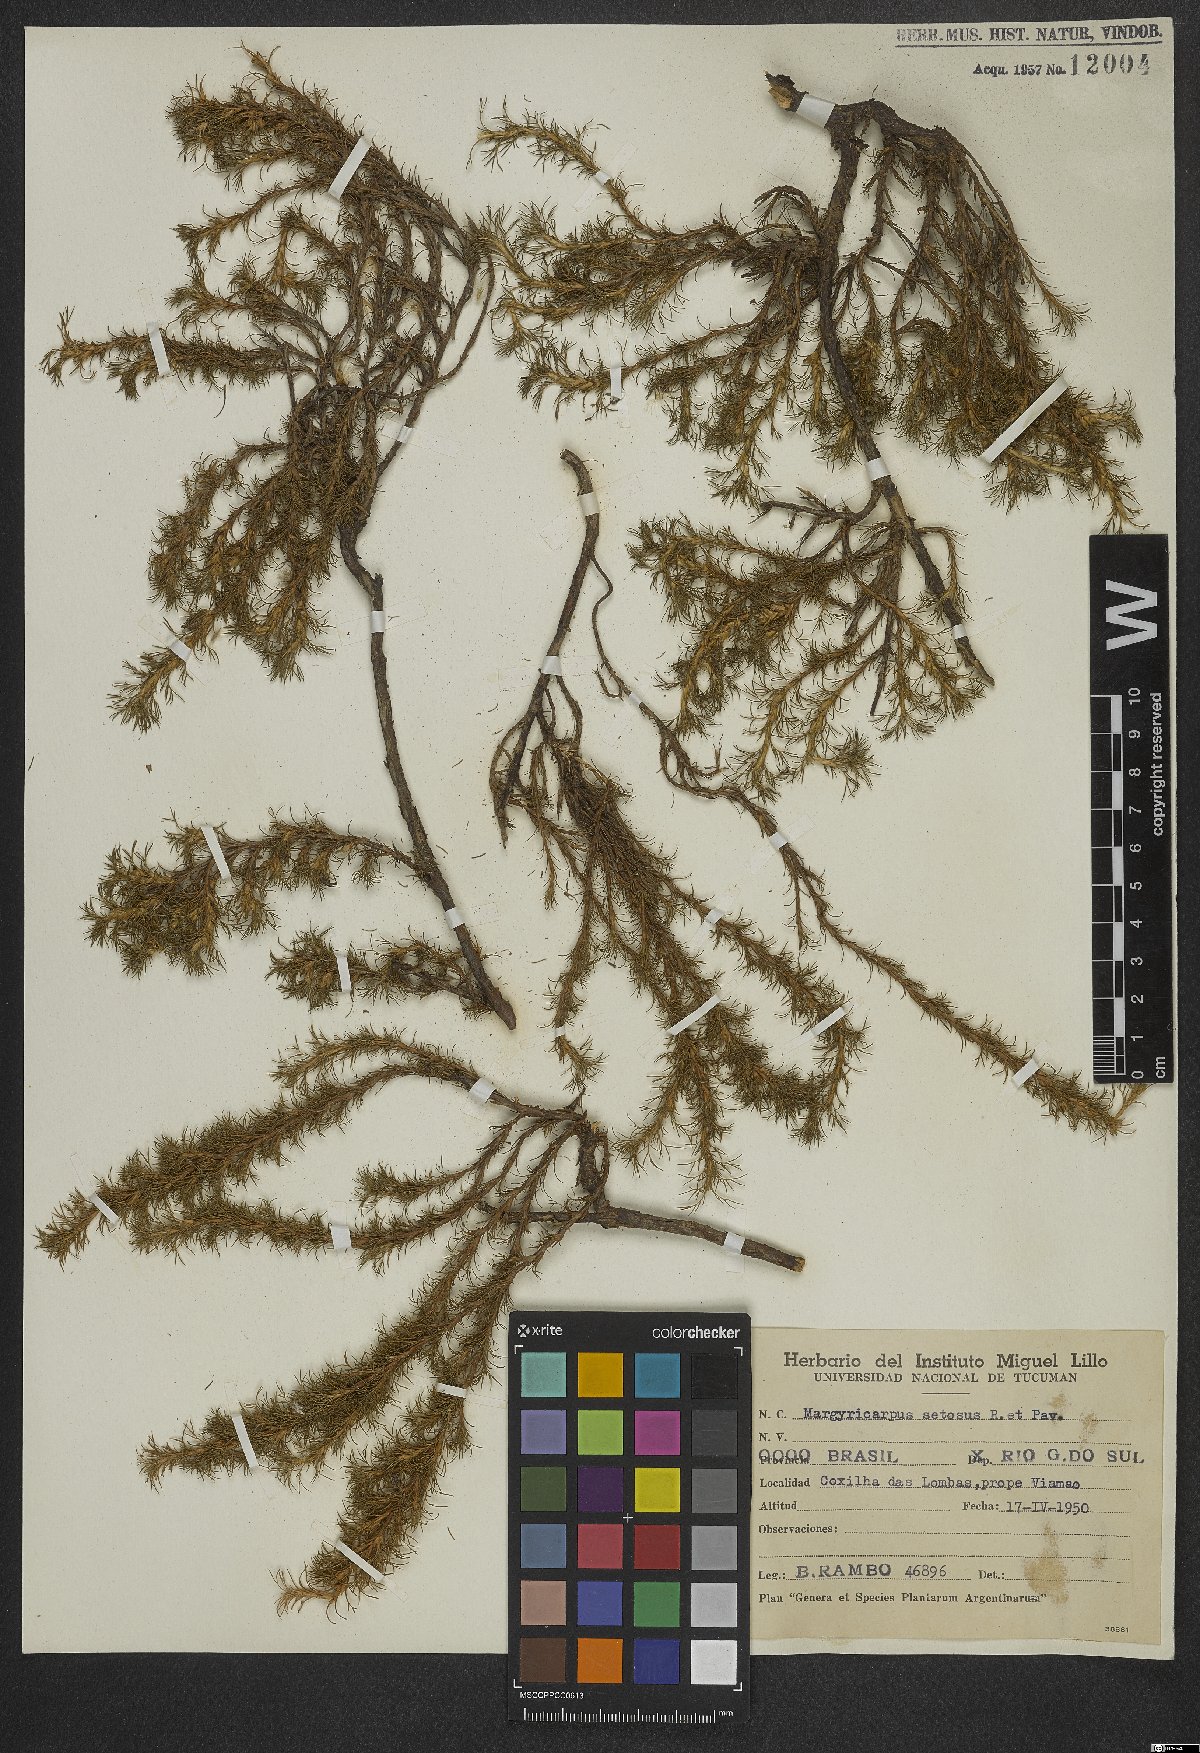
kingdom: Plantae
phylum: Tracheophyta
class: Magnoliopsida
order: Rosales
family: Rosaceae
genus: Margyricarpus
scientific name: Margyricarpus pinnatus
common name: Pearlfruit
